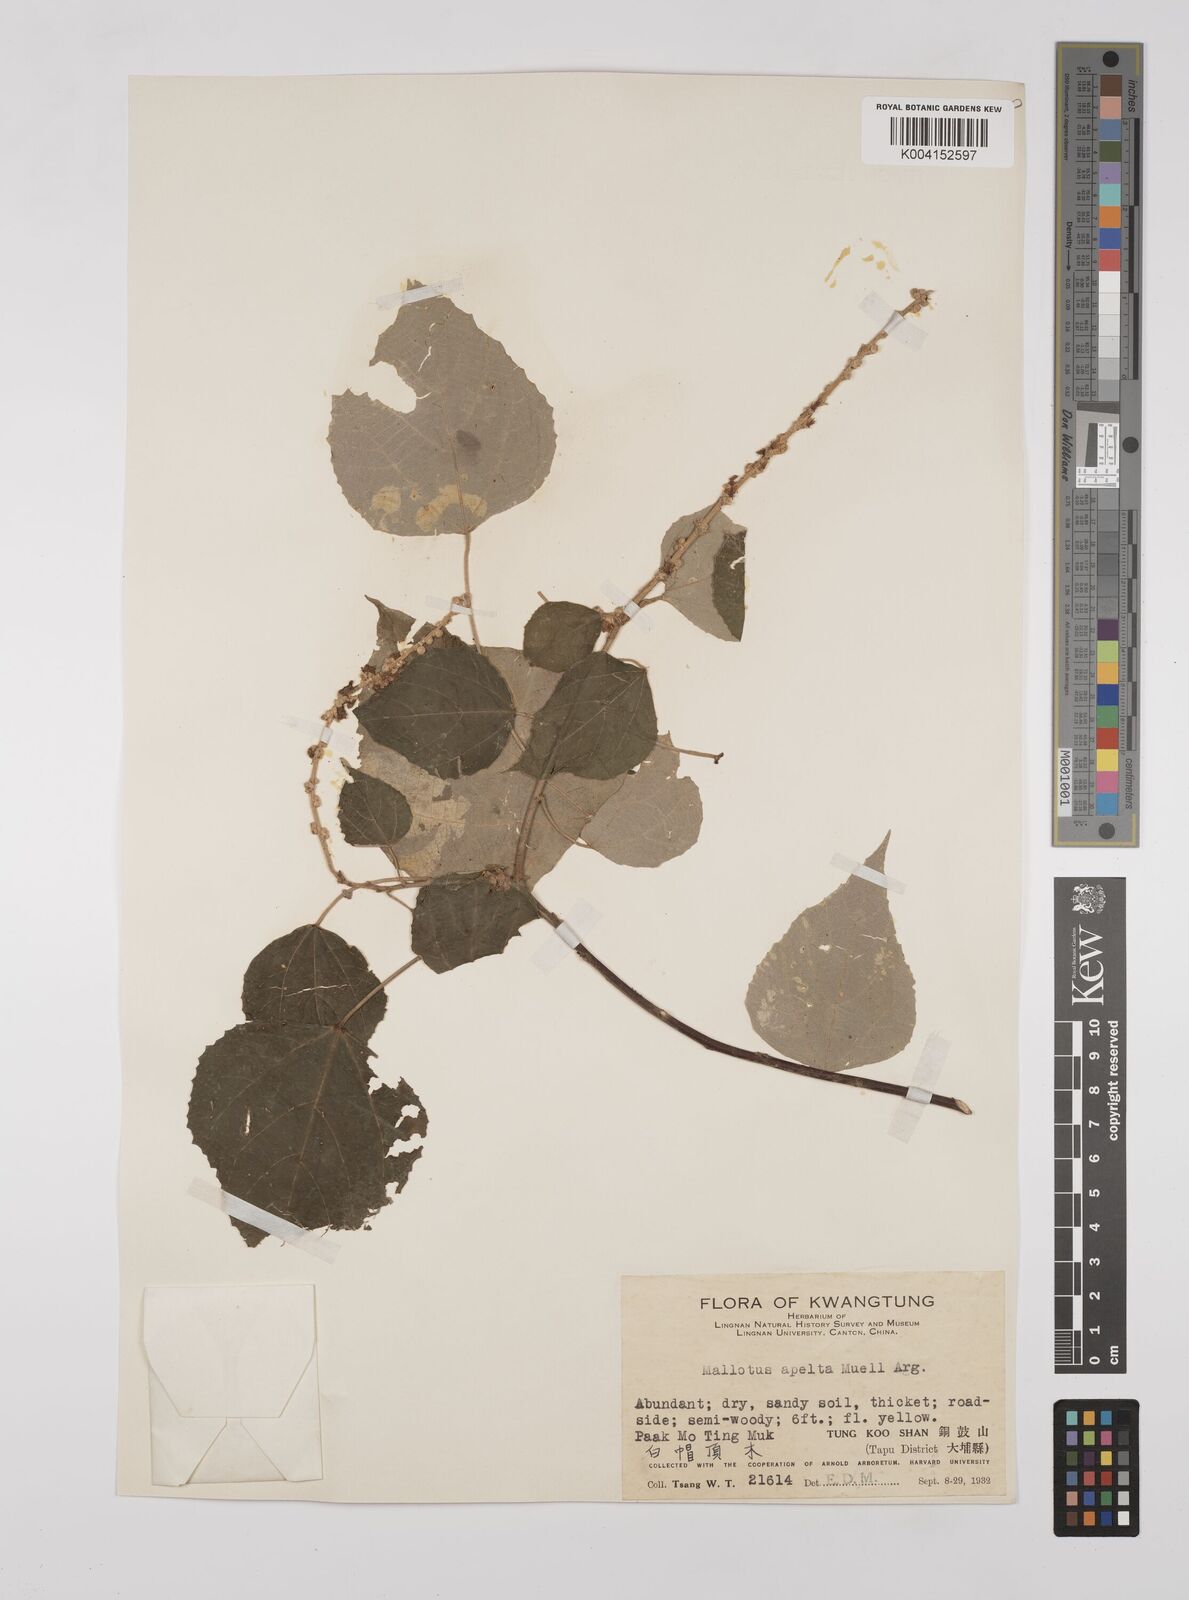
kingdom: Plantae
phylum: Tracheophyta
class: Magnoliopsida
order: Malpighiales
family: Euphorbiaceae
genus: Mallotus
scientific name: Mallotus apelta
